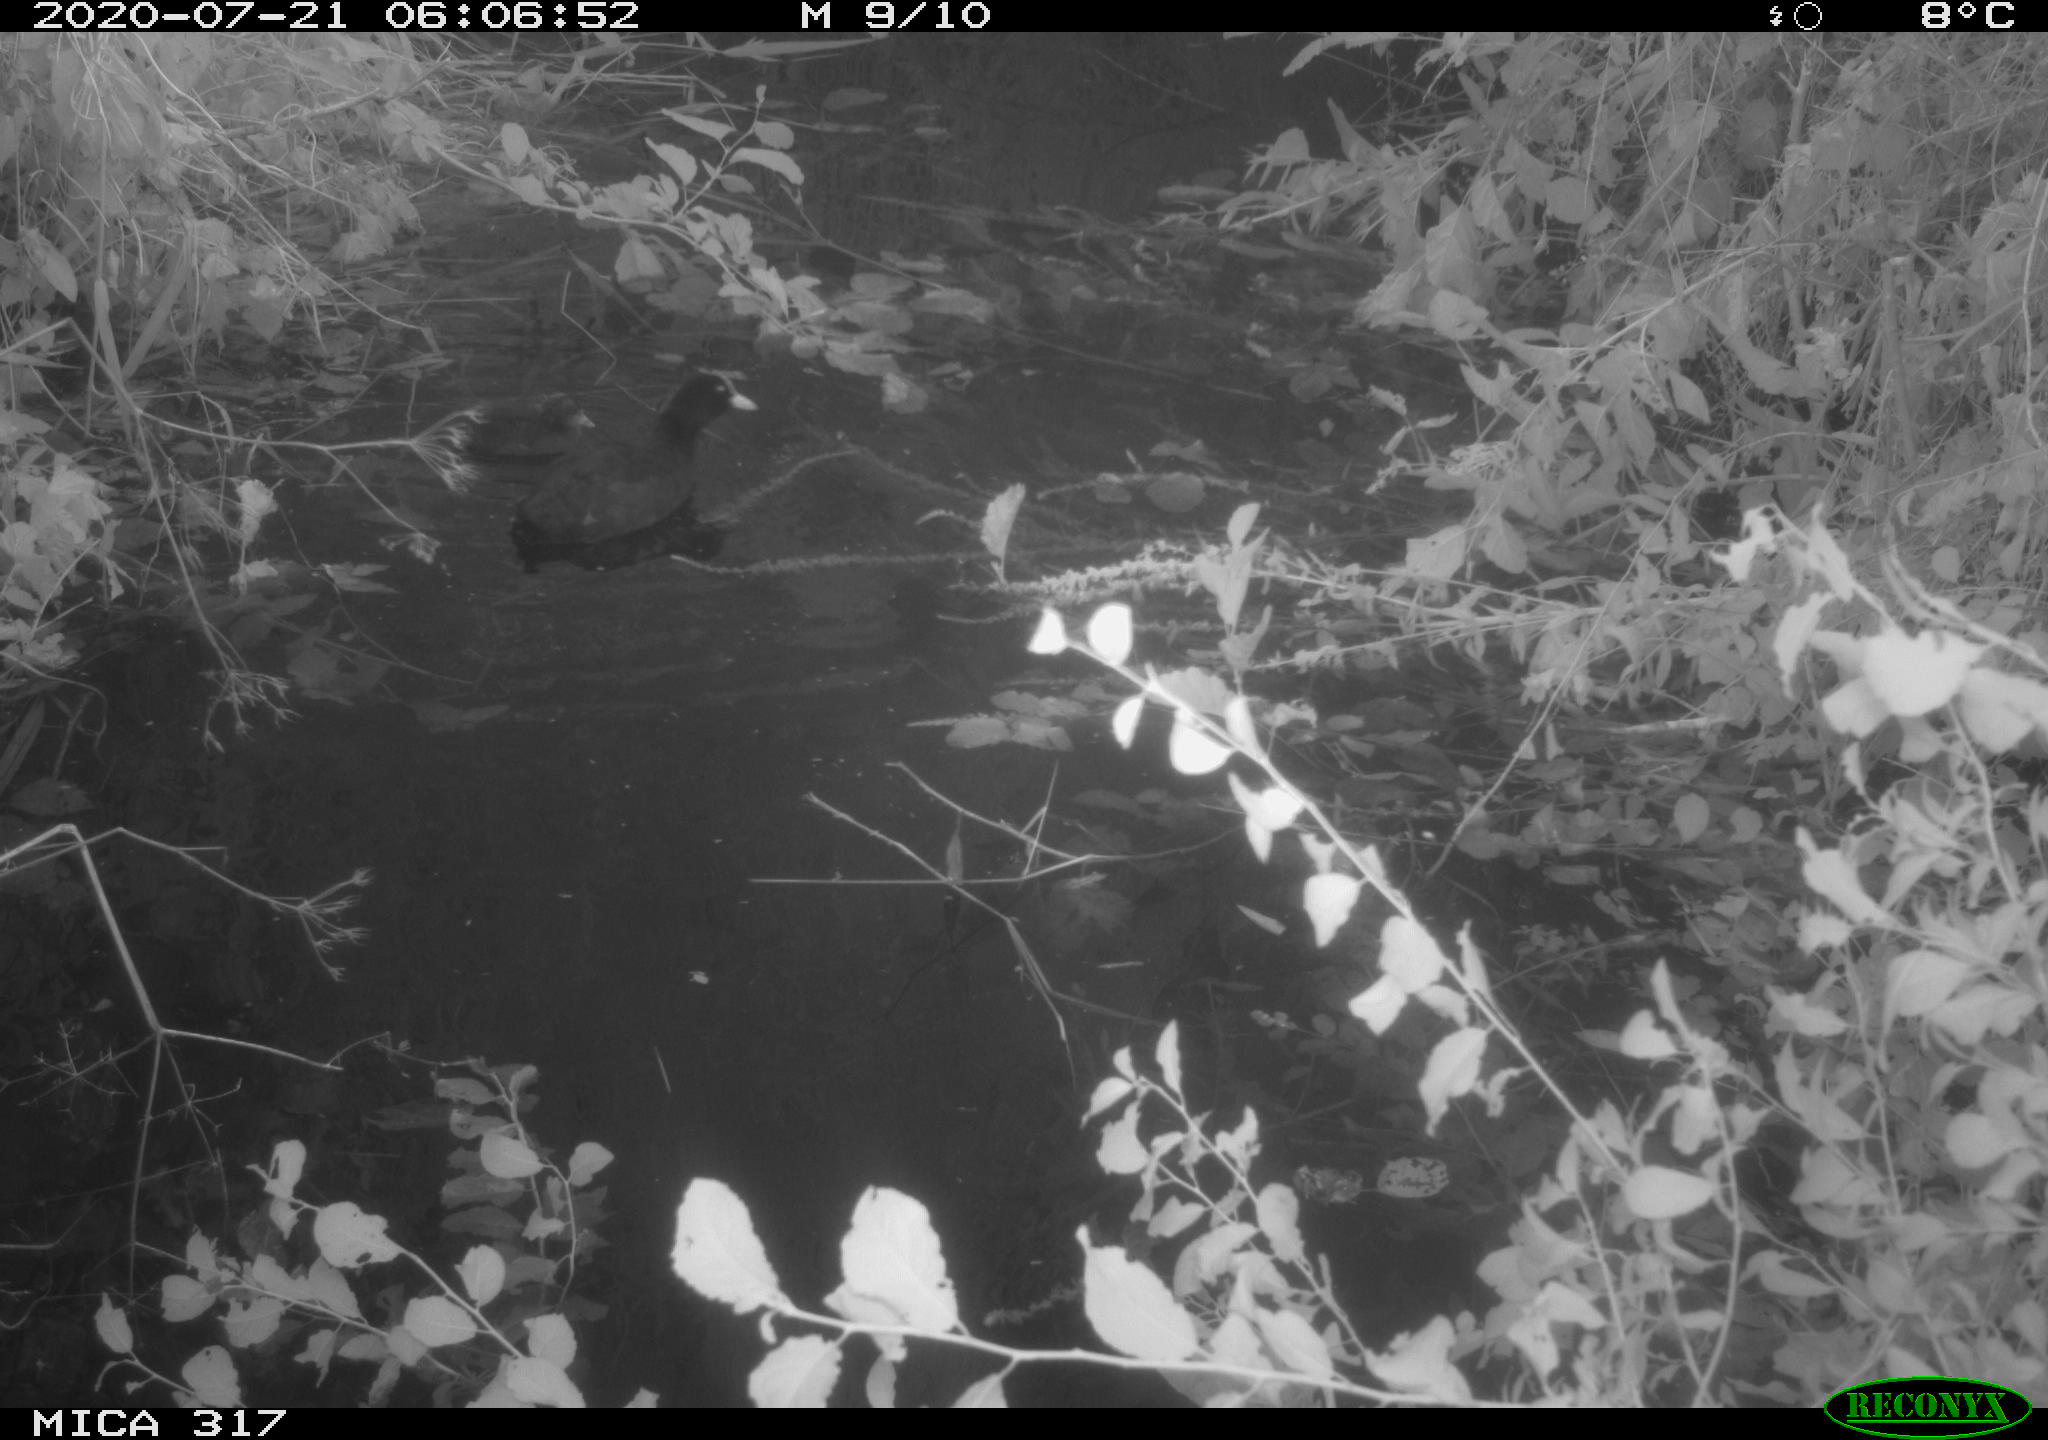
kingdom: Animalia
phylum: Chordata
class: Aves
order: Anseriformes
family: Anatidae
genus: Anas
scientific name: Anas platyrhynchos
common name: Mallard
